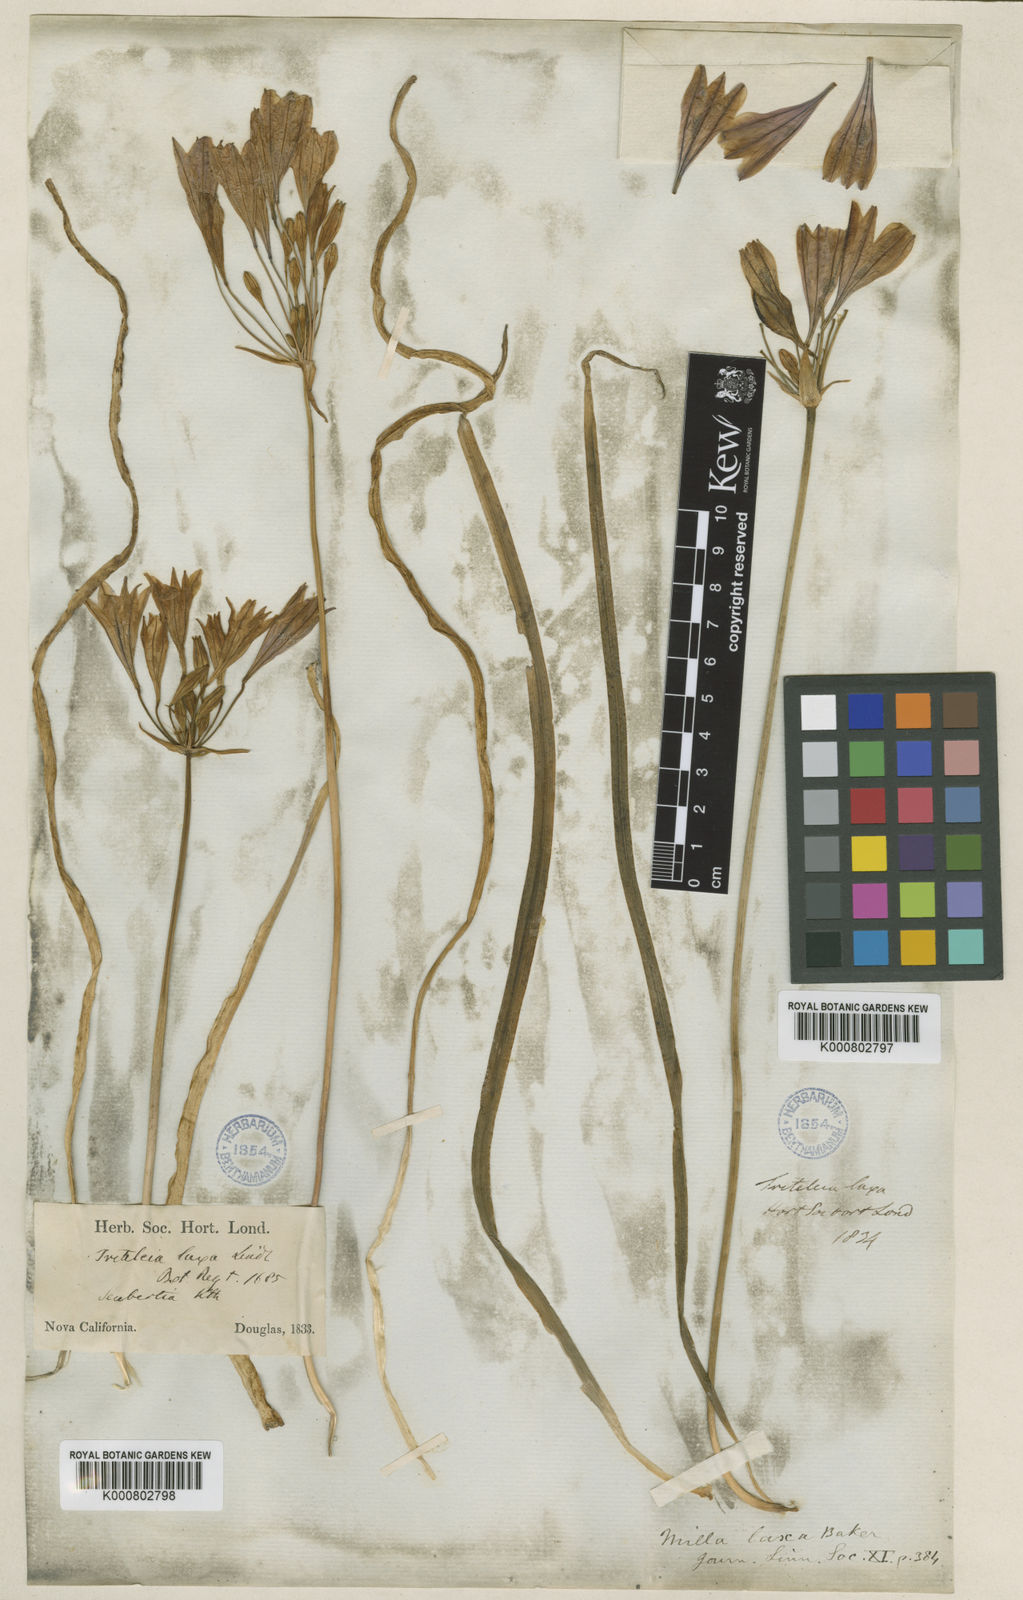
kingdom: Plantae
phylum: Tracheophyta
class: Liliopsida
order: Asparagales
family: Asparagaceae
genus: Triteleia
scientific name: Triteleia laxa
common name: Triplet-lily
